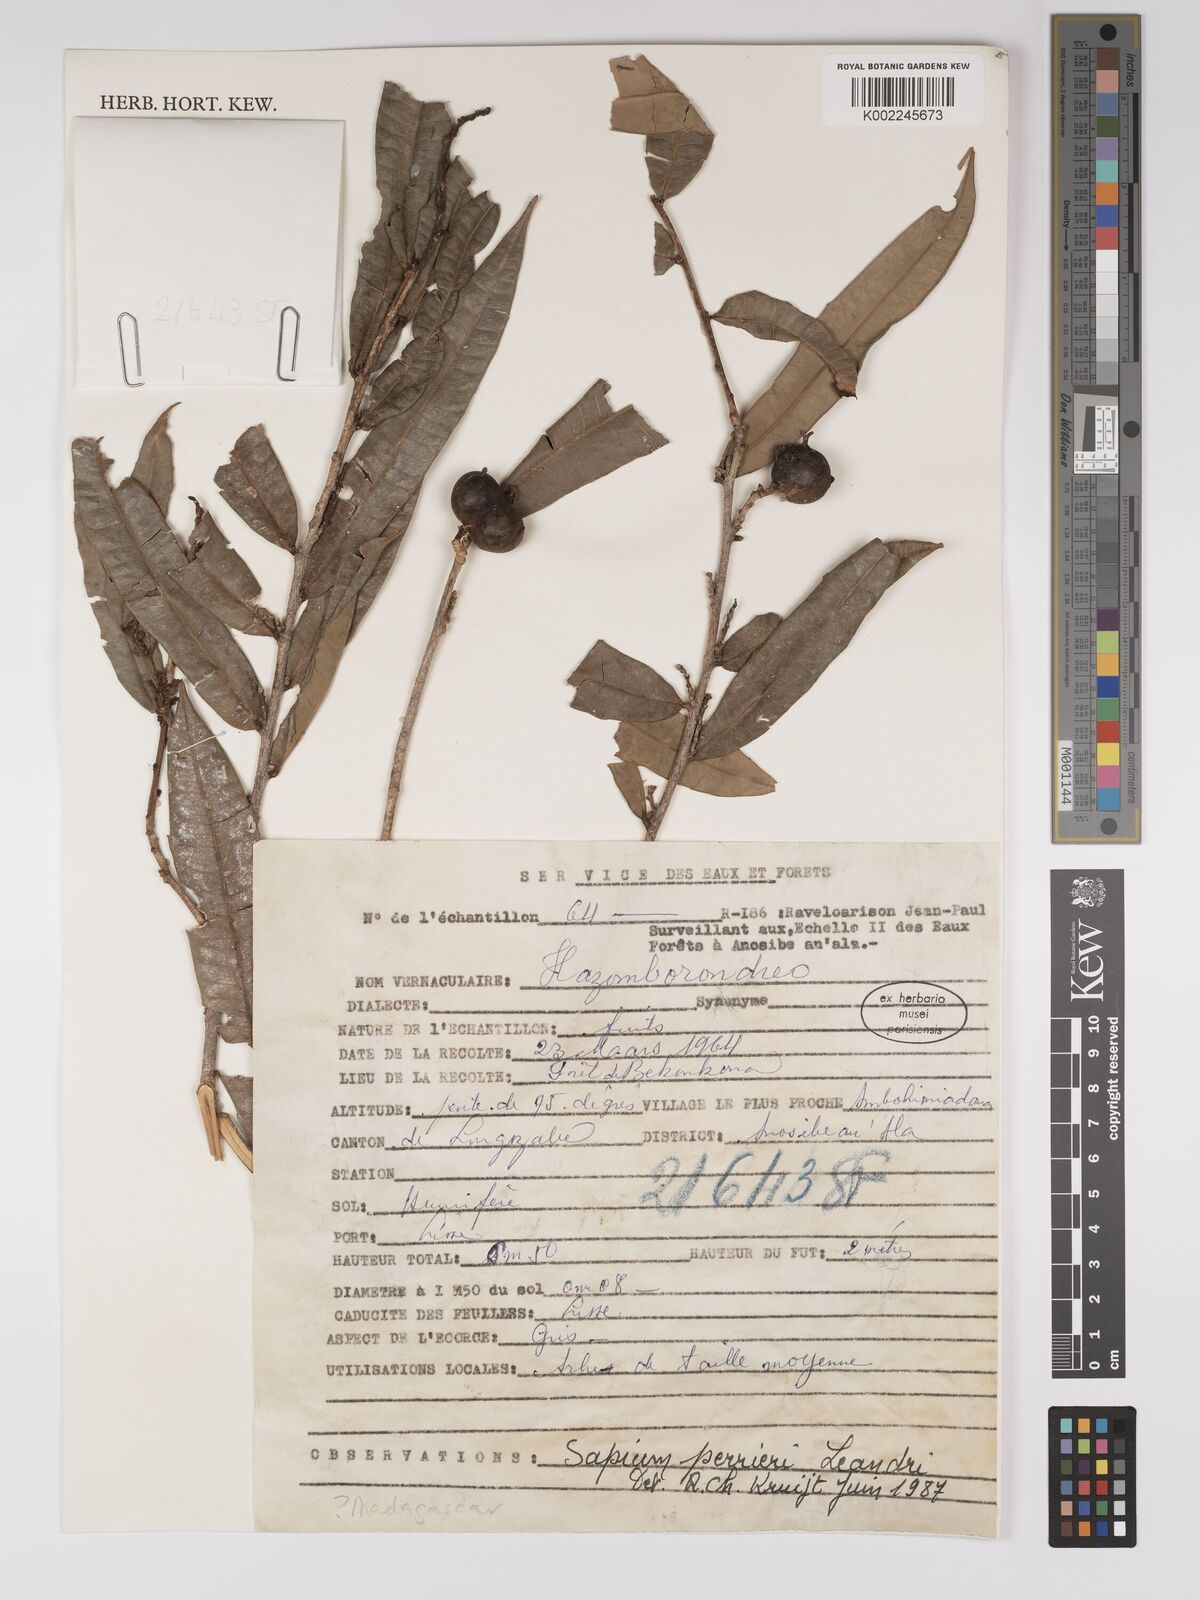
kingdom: Plantae
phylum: Tracheophyta
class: Magnoliopsida
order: Malpighiales
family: Euphorbiaceae
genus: Anomostachys
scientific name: Anomostachys lastellei
